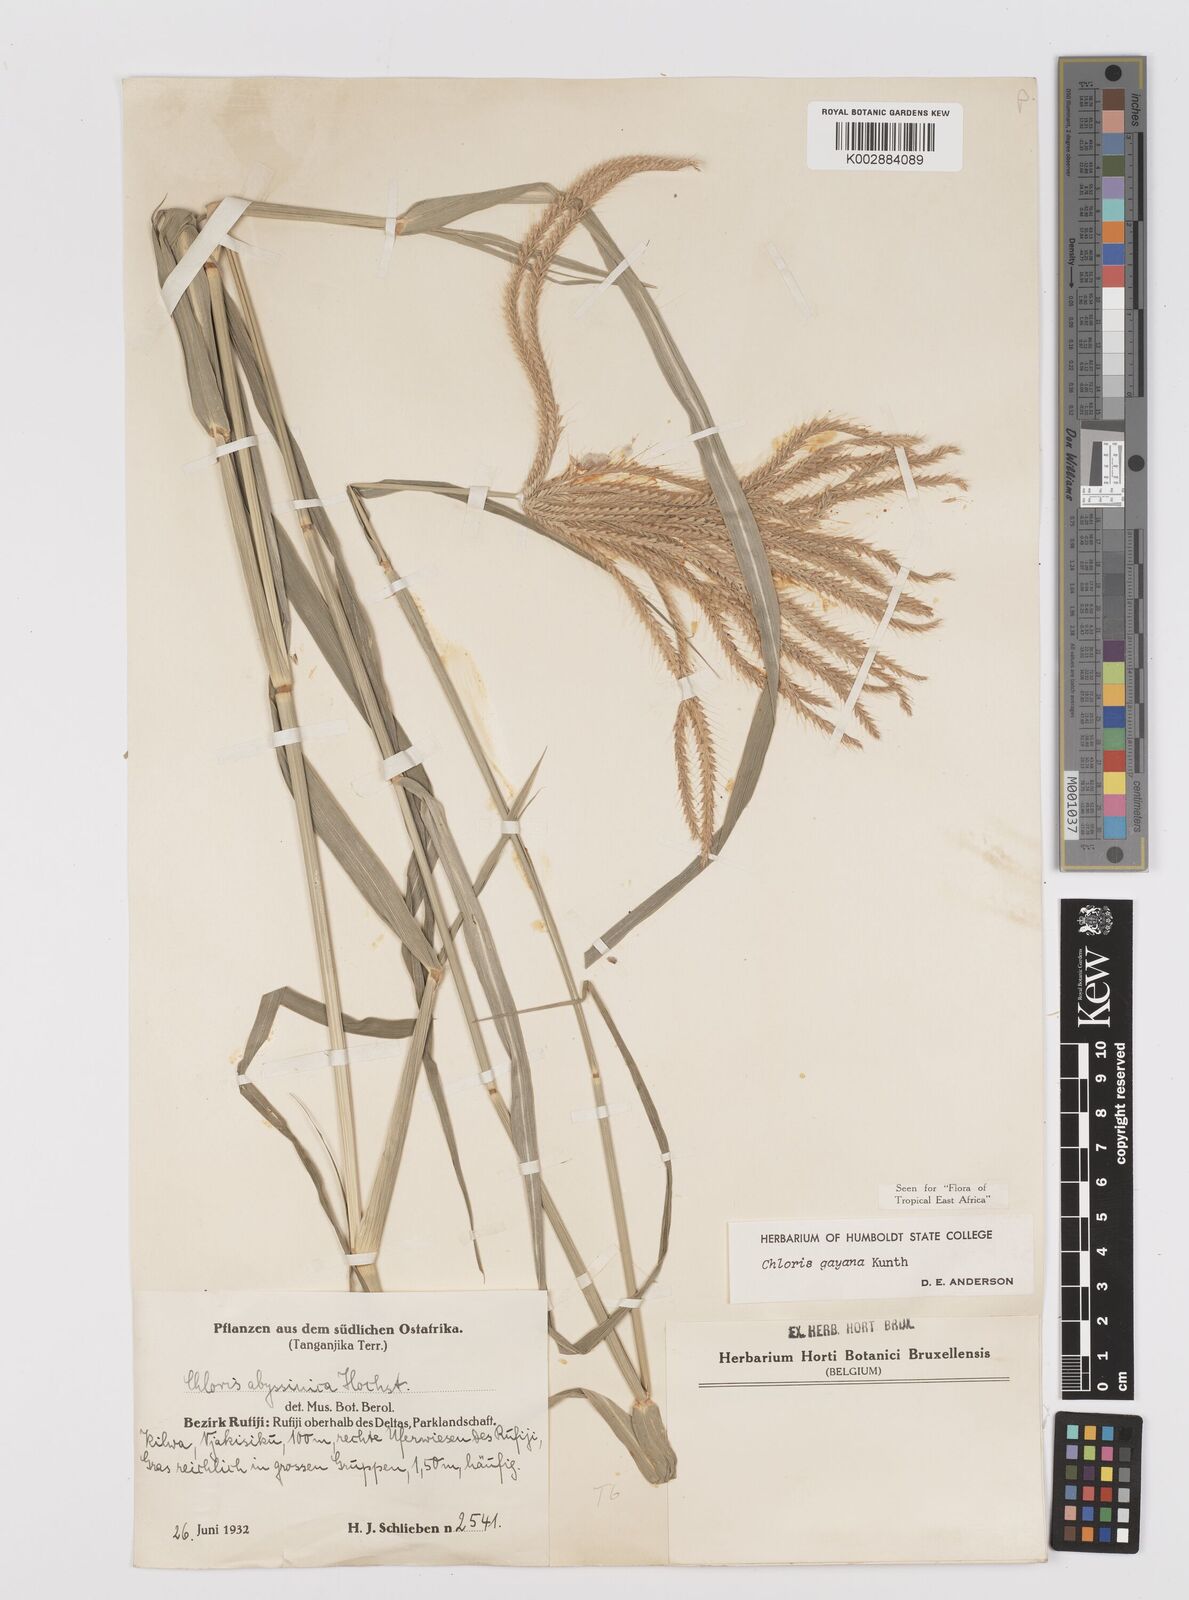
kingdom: Plantae
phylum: Tracheophyta
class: Liliopsida
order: Poales
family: Poaceae
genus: Chloris
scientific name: Chloris gayana
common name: Rhodes grass
